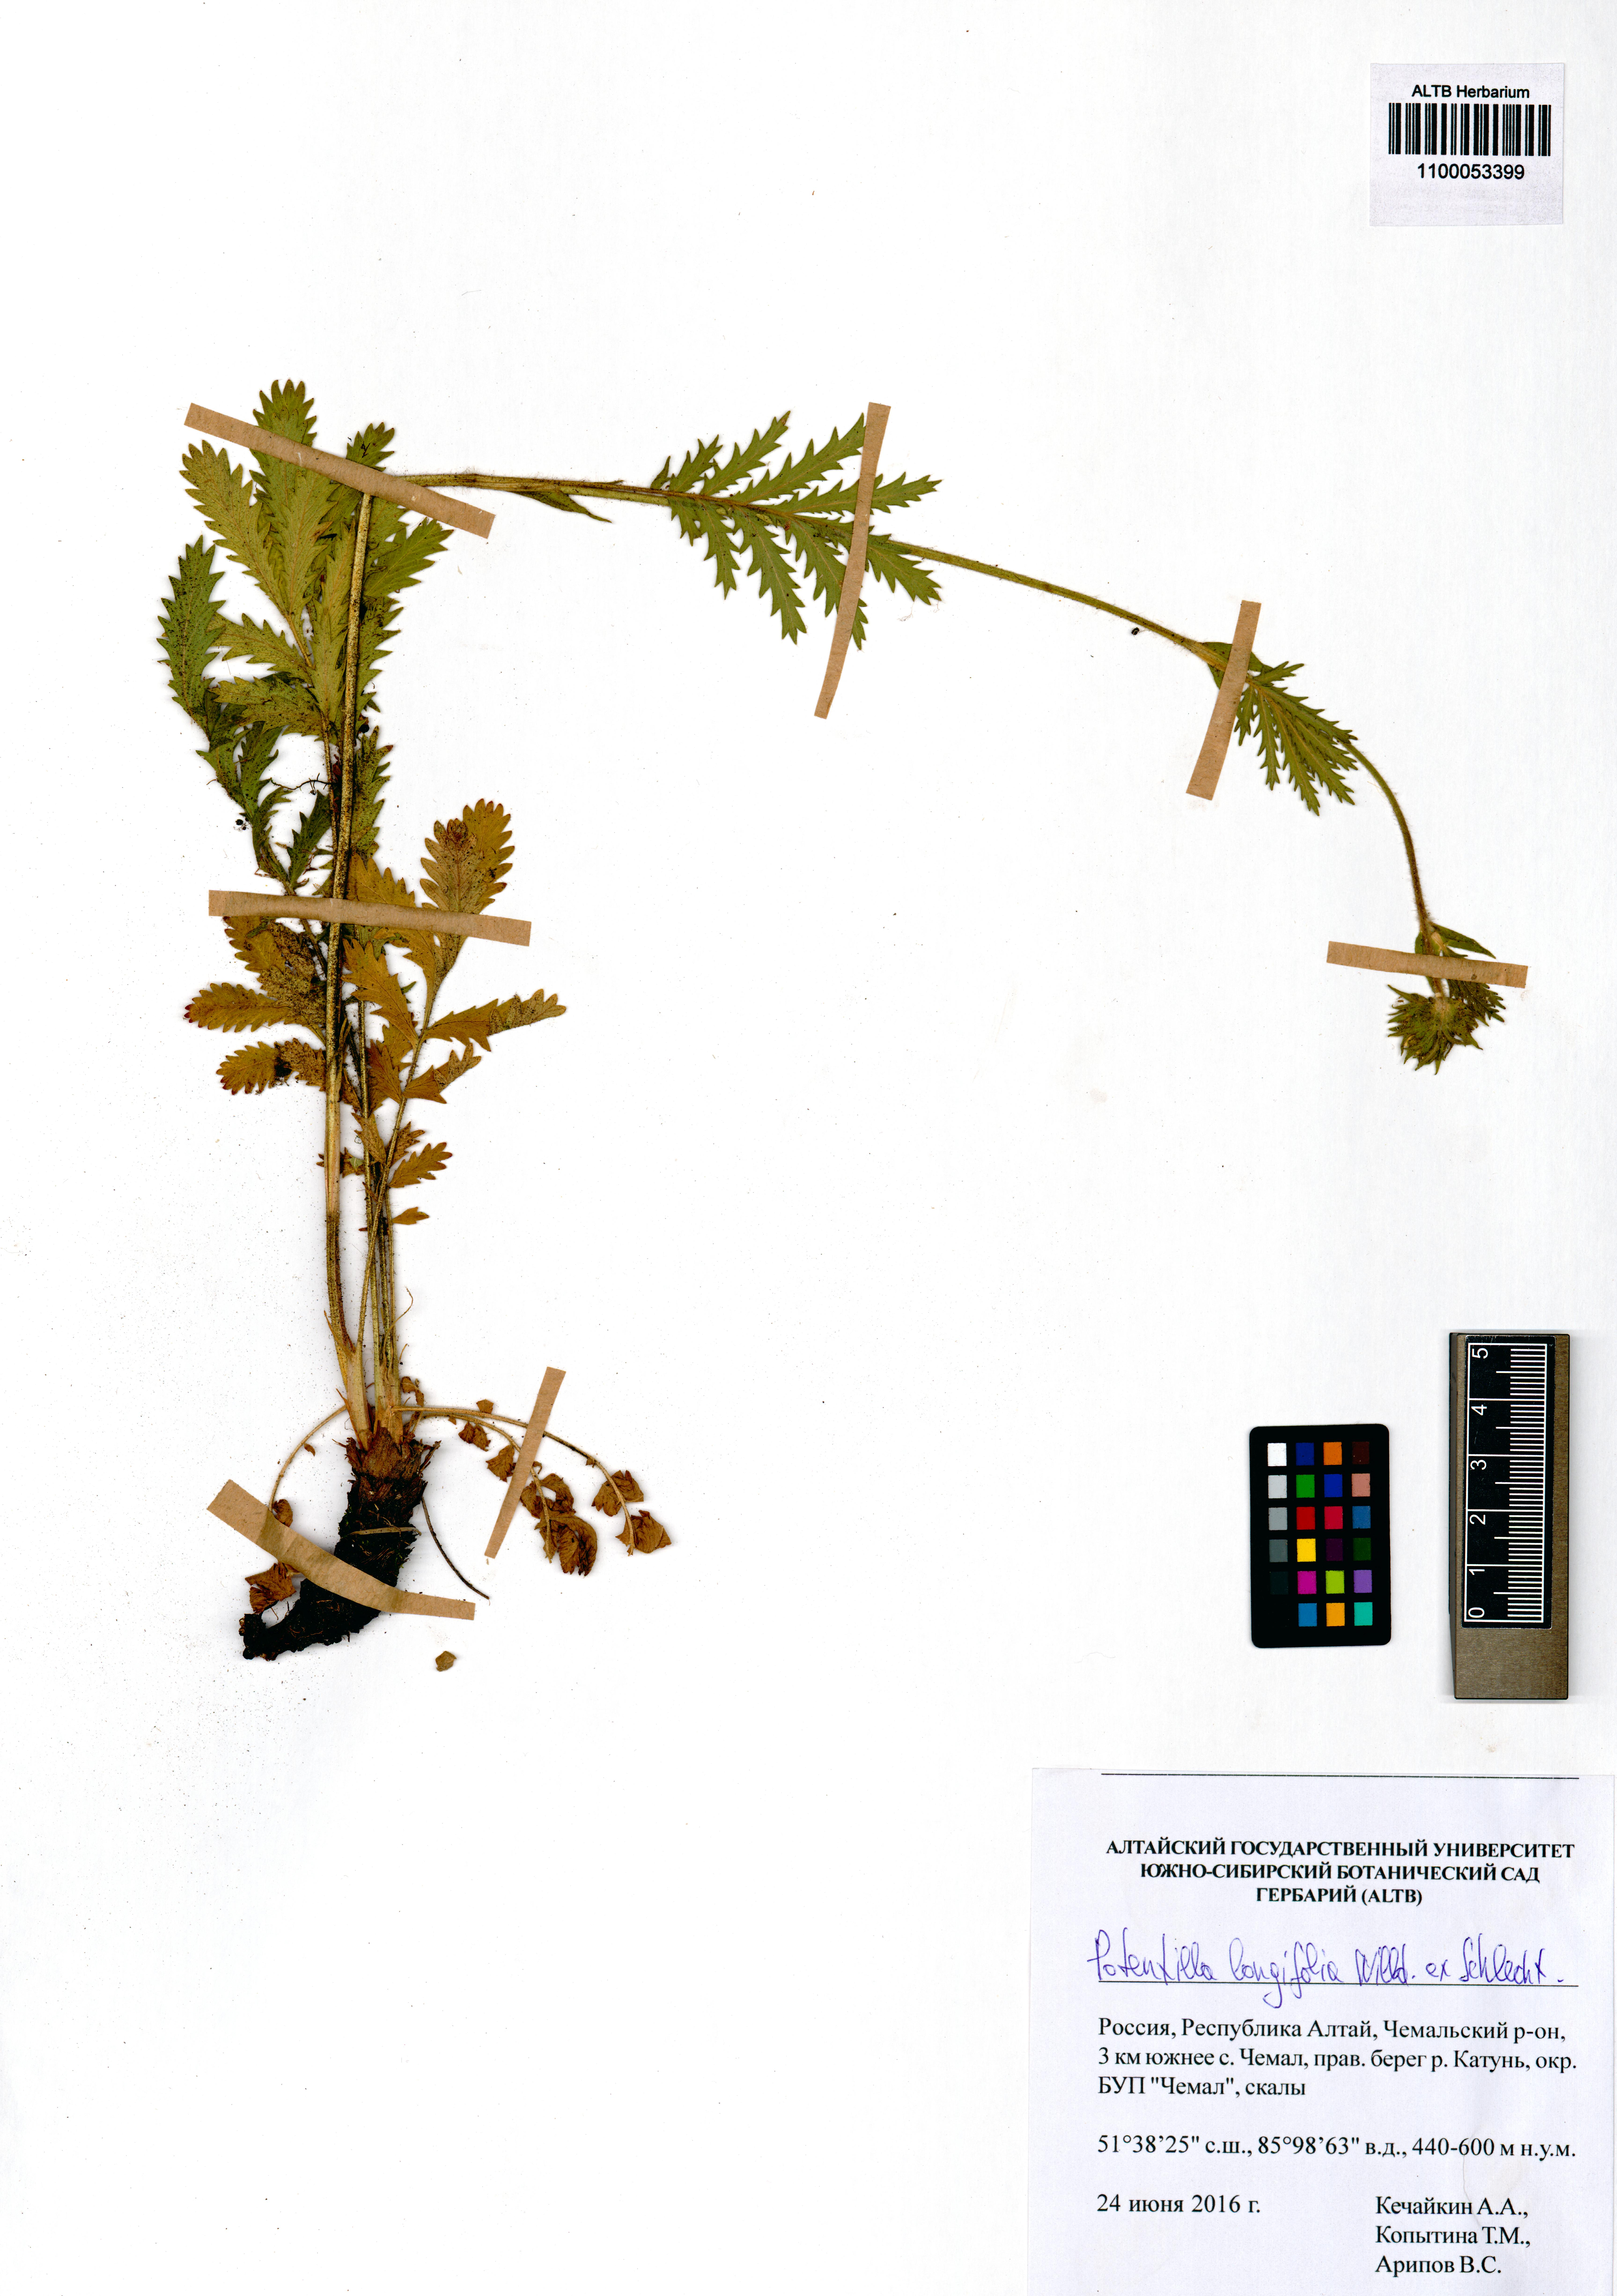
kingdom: Plantae
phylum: Tracheophyta
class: Magnoliopsida
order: Rosales
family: Rosaceae
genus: Potentilla
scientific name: Potentilla longifolia
